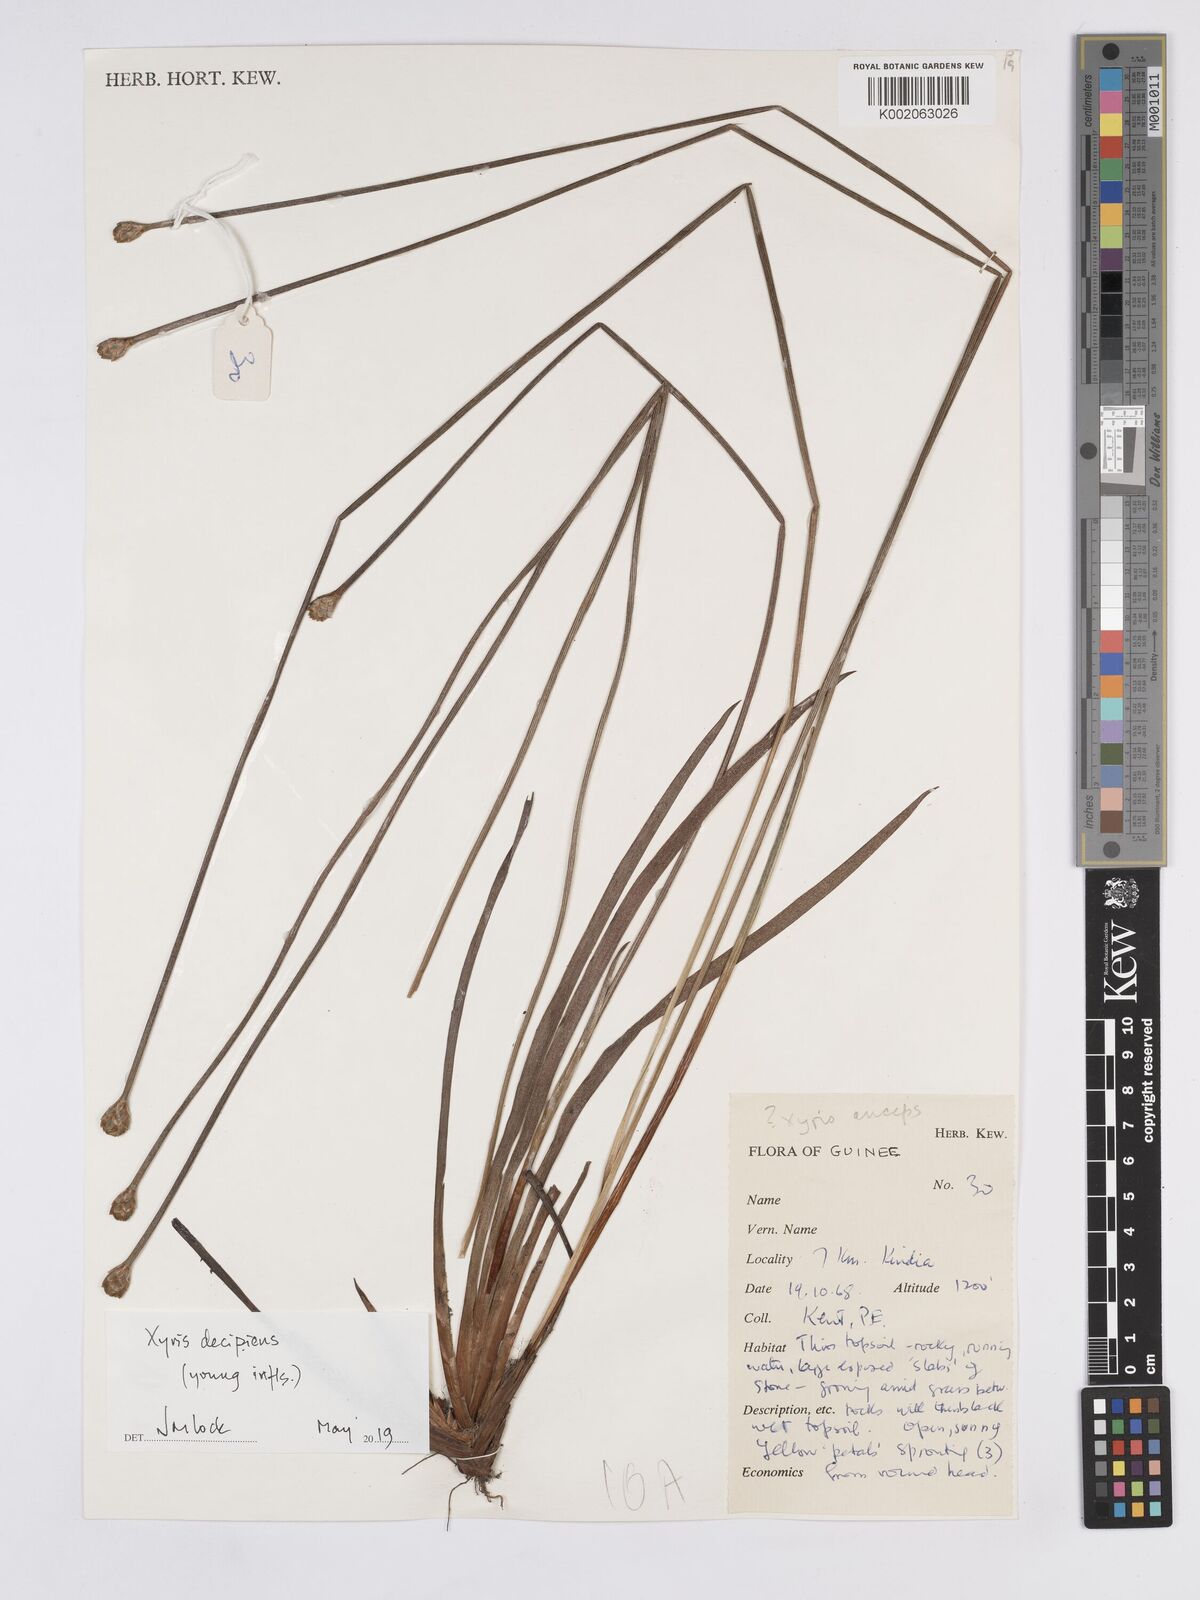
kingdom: Plantae
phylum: Tracheophyta
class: Liliopsida
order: Poales
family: Xyridaceae
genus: Xyris
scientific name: Xyris anceps
